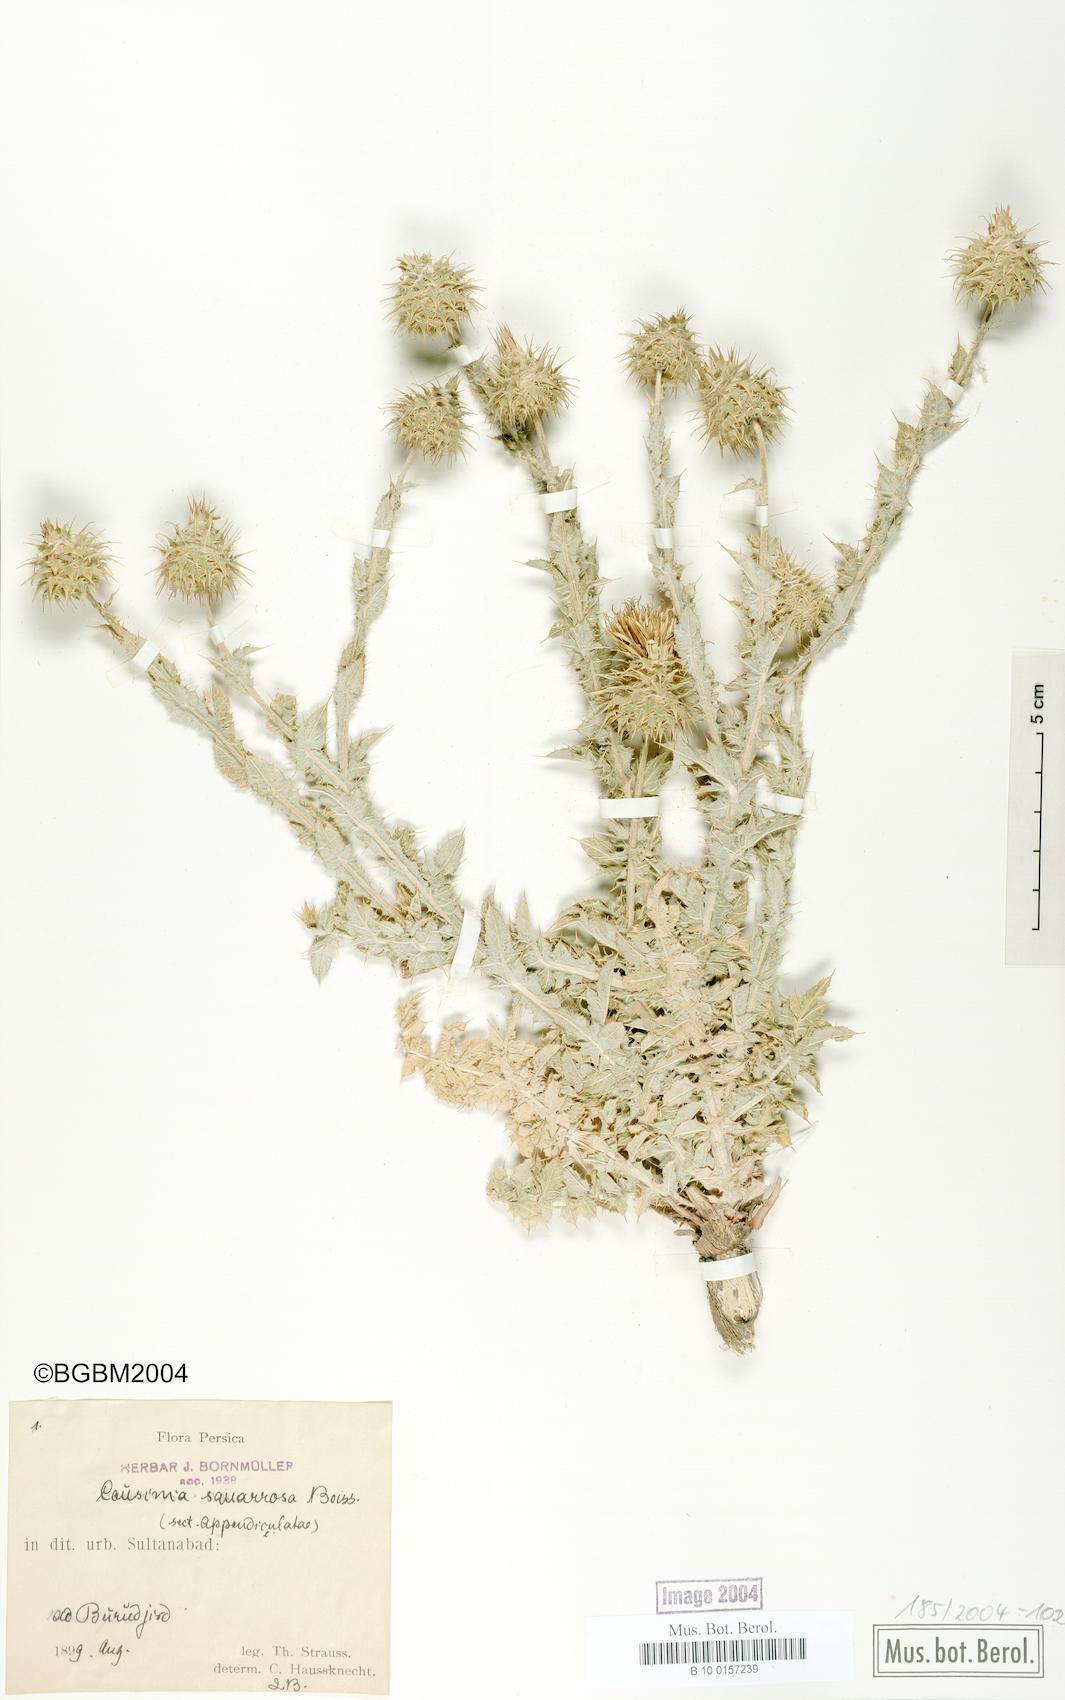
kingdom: Plantae
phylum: Tracheophyta
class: Magnoliopsida
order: Asterales
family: Asteraceae
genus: Cousinia
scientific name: Cousinia calocephala
